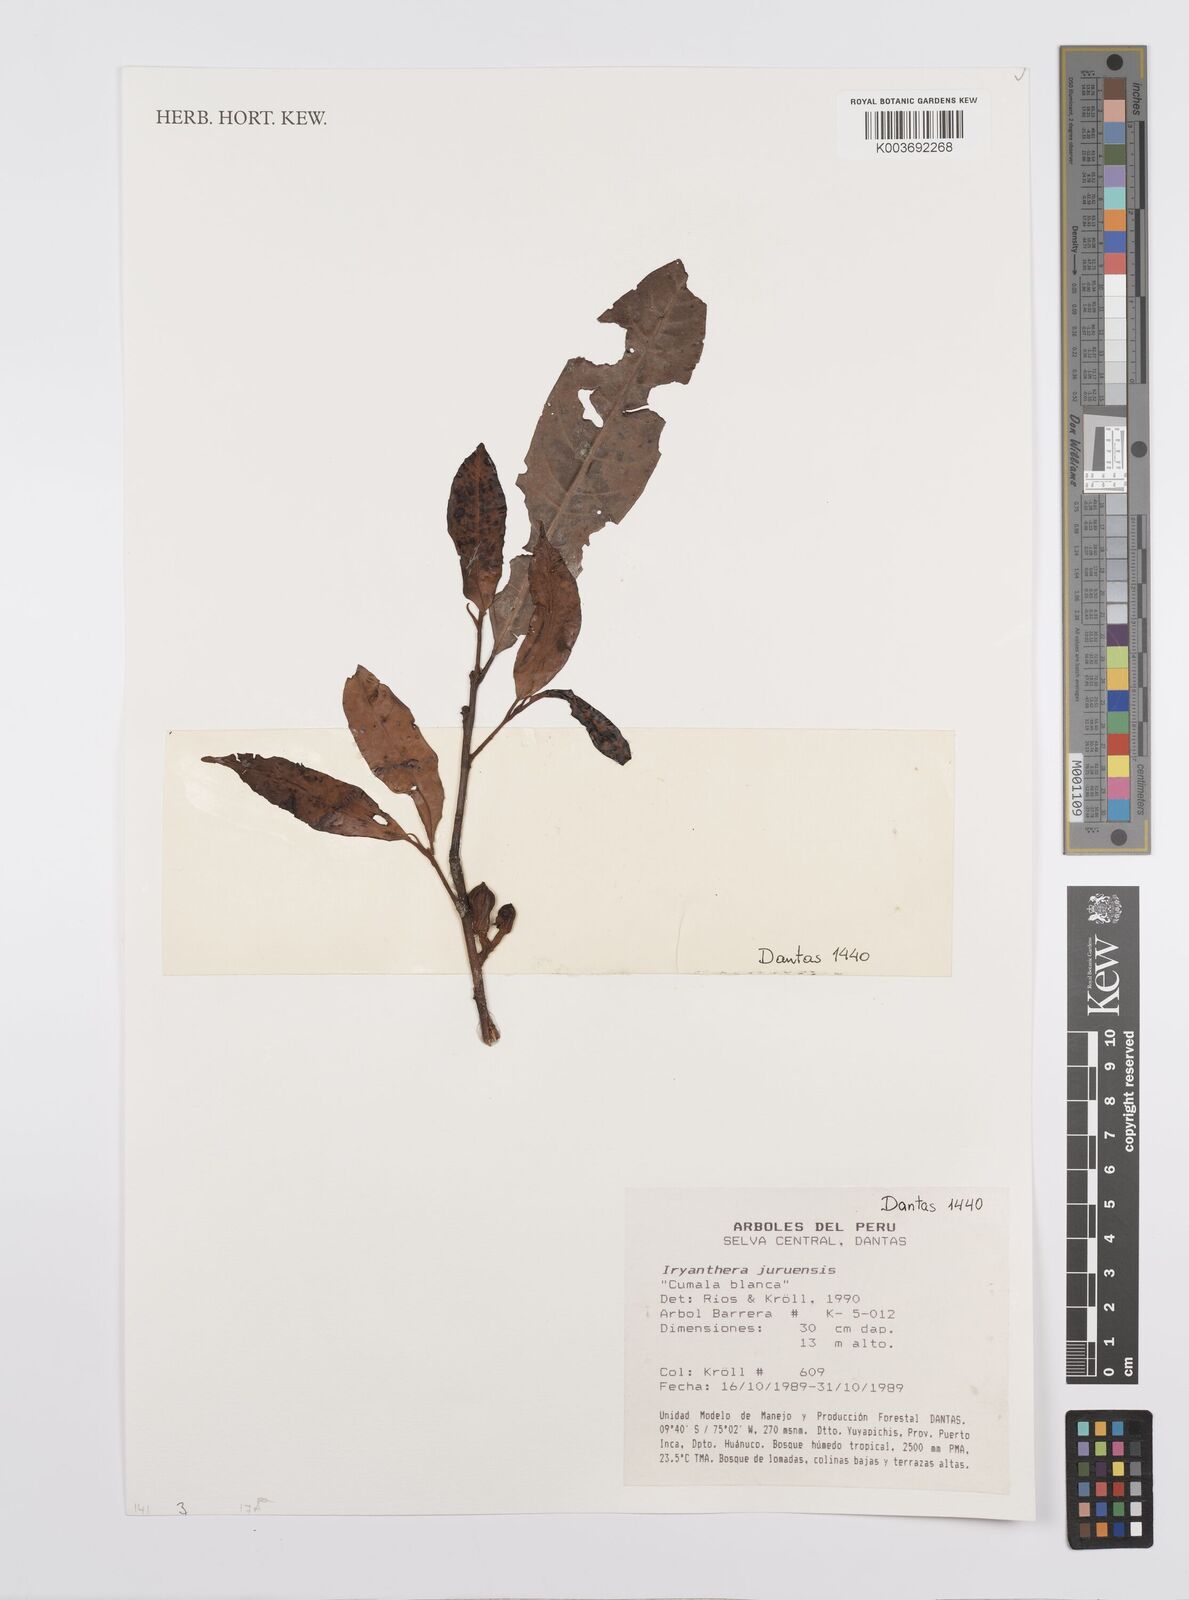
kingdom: Plantae
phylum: Tracheophyta
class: Magnoliopsida
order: Magnoliales
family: Myristicaceae
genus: Iryanthera
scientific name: Iryanthera juruensis
